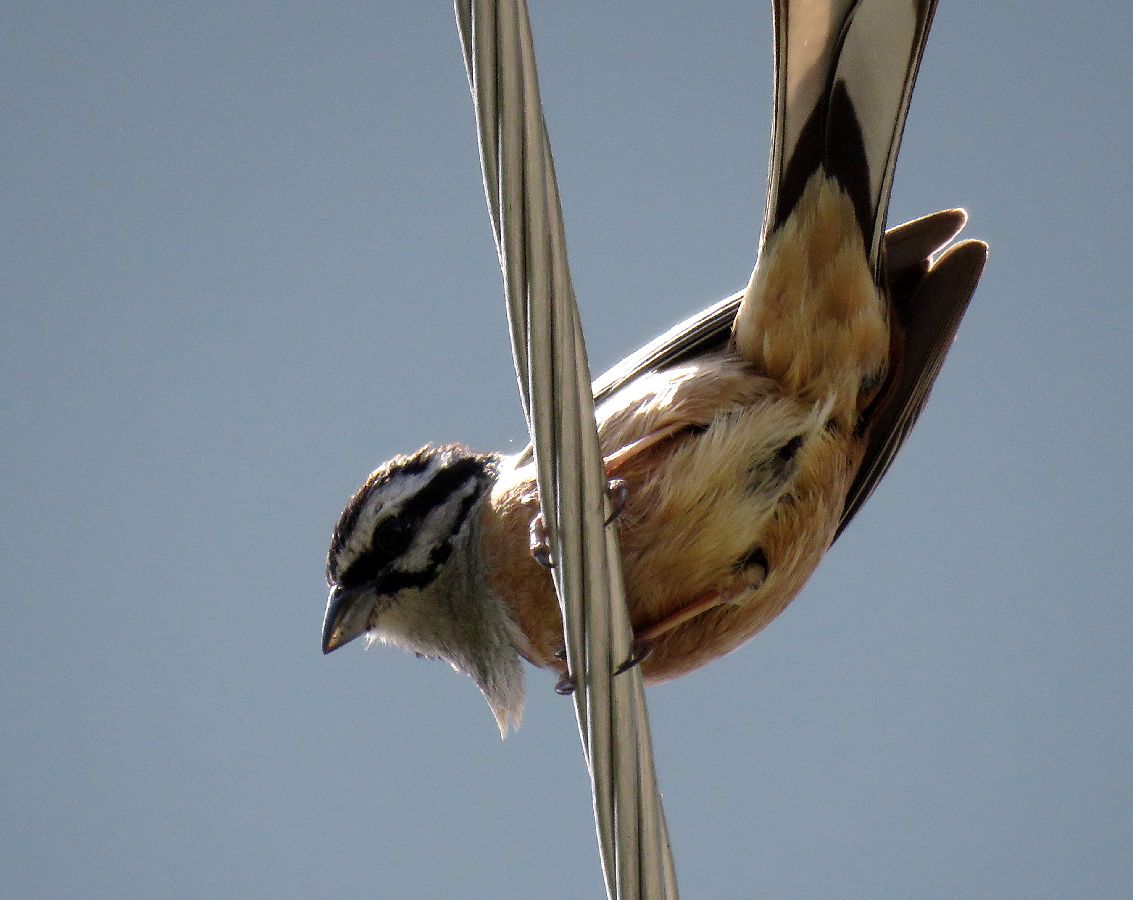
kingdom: Animalia
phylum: Chordata
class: Aves
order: Passeriformes
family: Emberizidae
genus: Emberiza
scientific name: Emberiza cia
